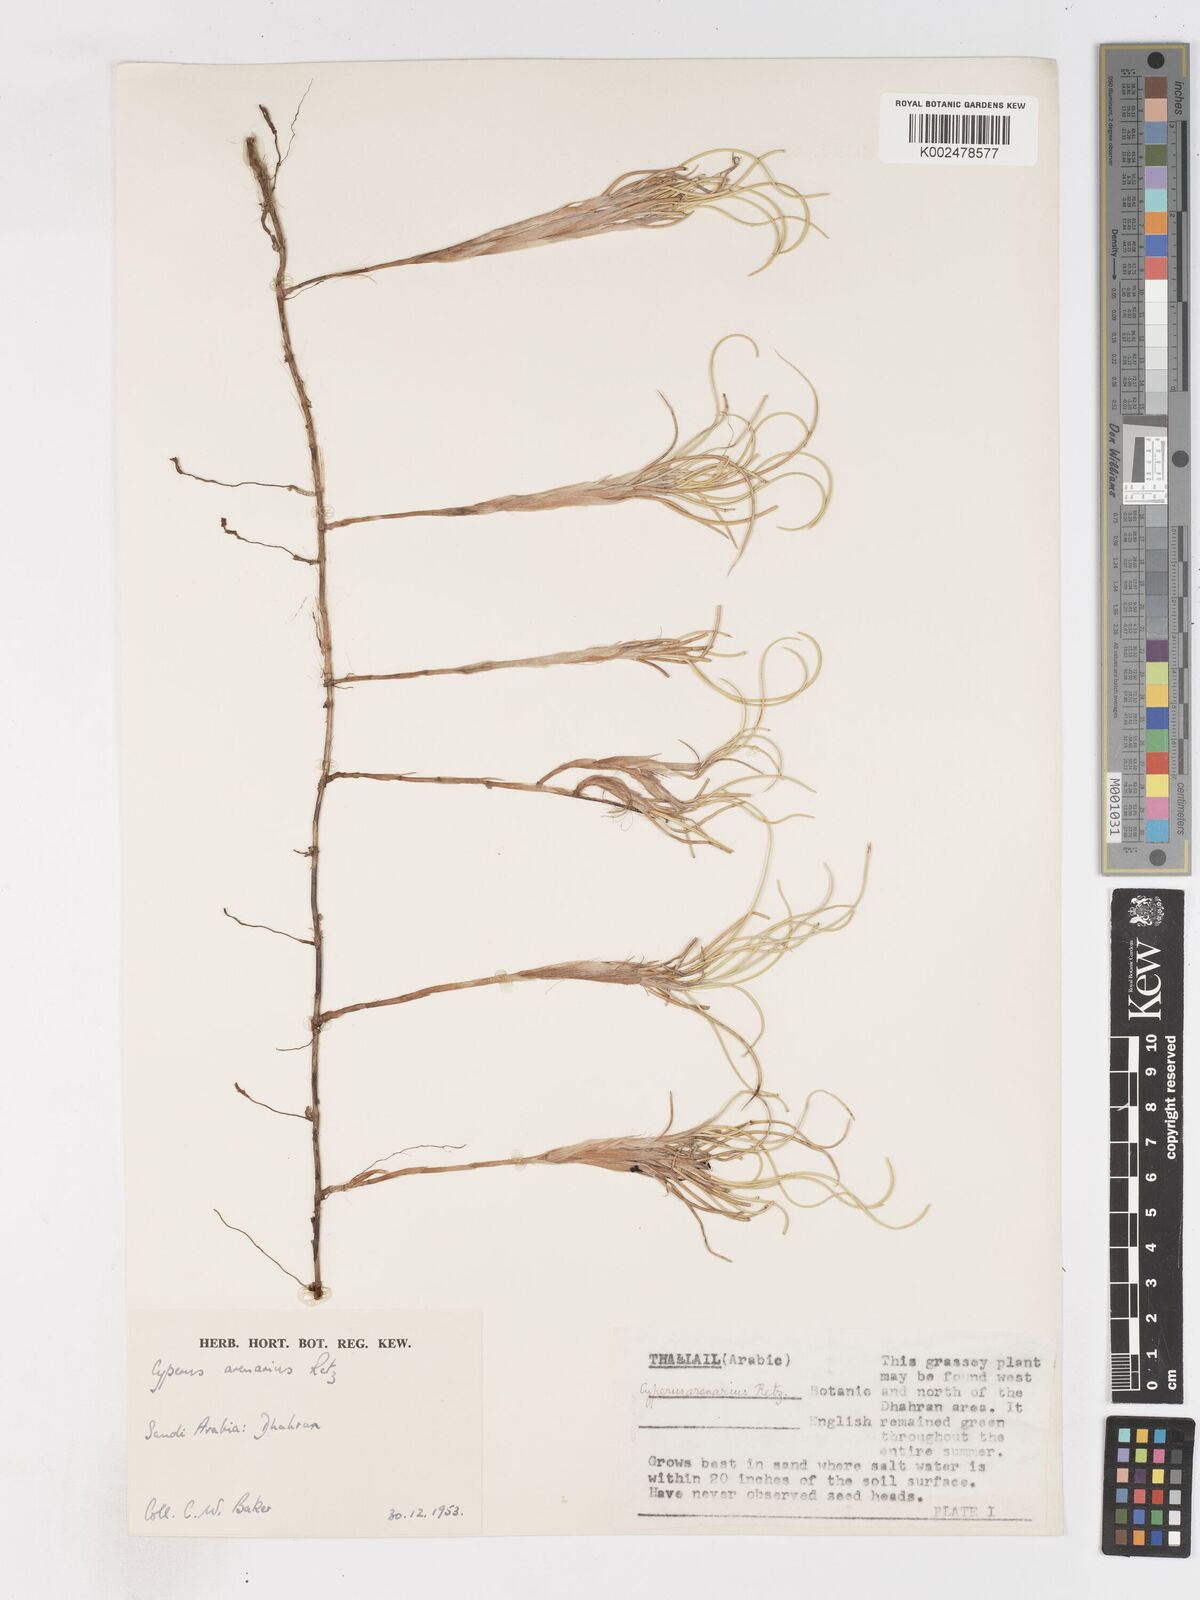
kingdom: Plantae
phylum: Tracheophyta
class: Liliopsida
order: Poales
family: Cyperaceae
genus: Cyperus
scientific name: Cyperus arenarius
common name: Dwarf sedge
